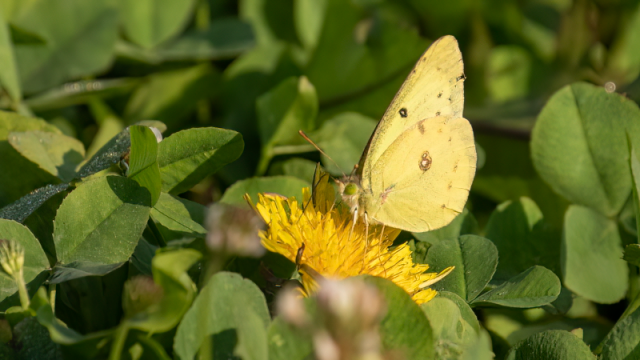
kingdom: Animalia
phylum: Arthropoda
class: Insecta
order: Lepidoptera
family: Pieridae
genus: Colias
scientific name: Colias philodice
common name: Clouded Sulphur
